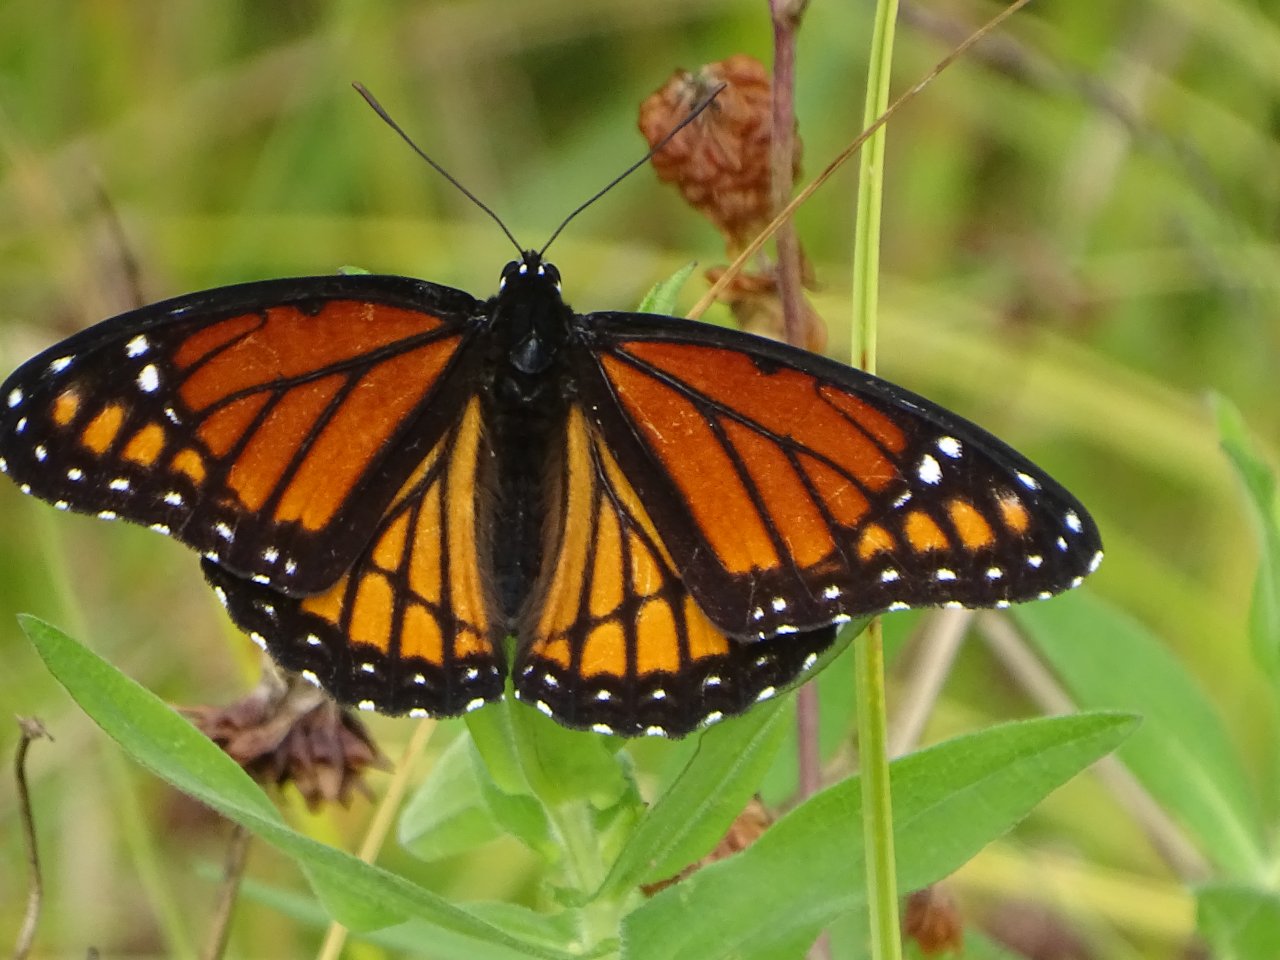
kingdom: Animalia
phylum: Arthropoda
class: Insecta
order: Lepidoptera
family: Nymphalidae
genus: Limenitis
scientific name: Limenitis archippus
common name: Viceroy
